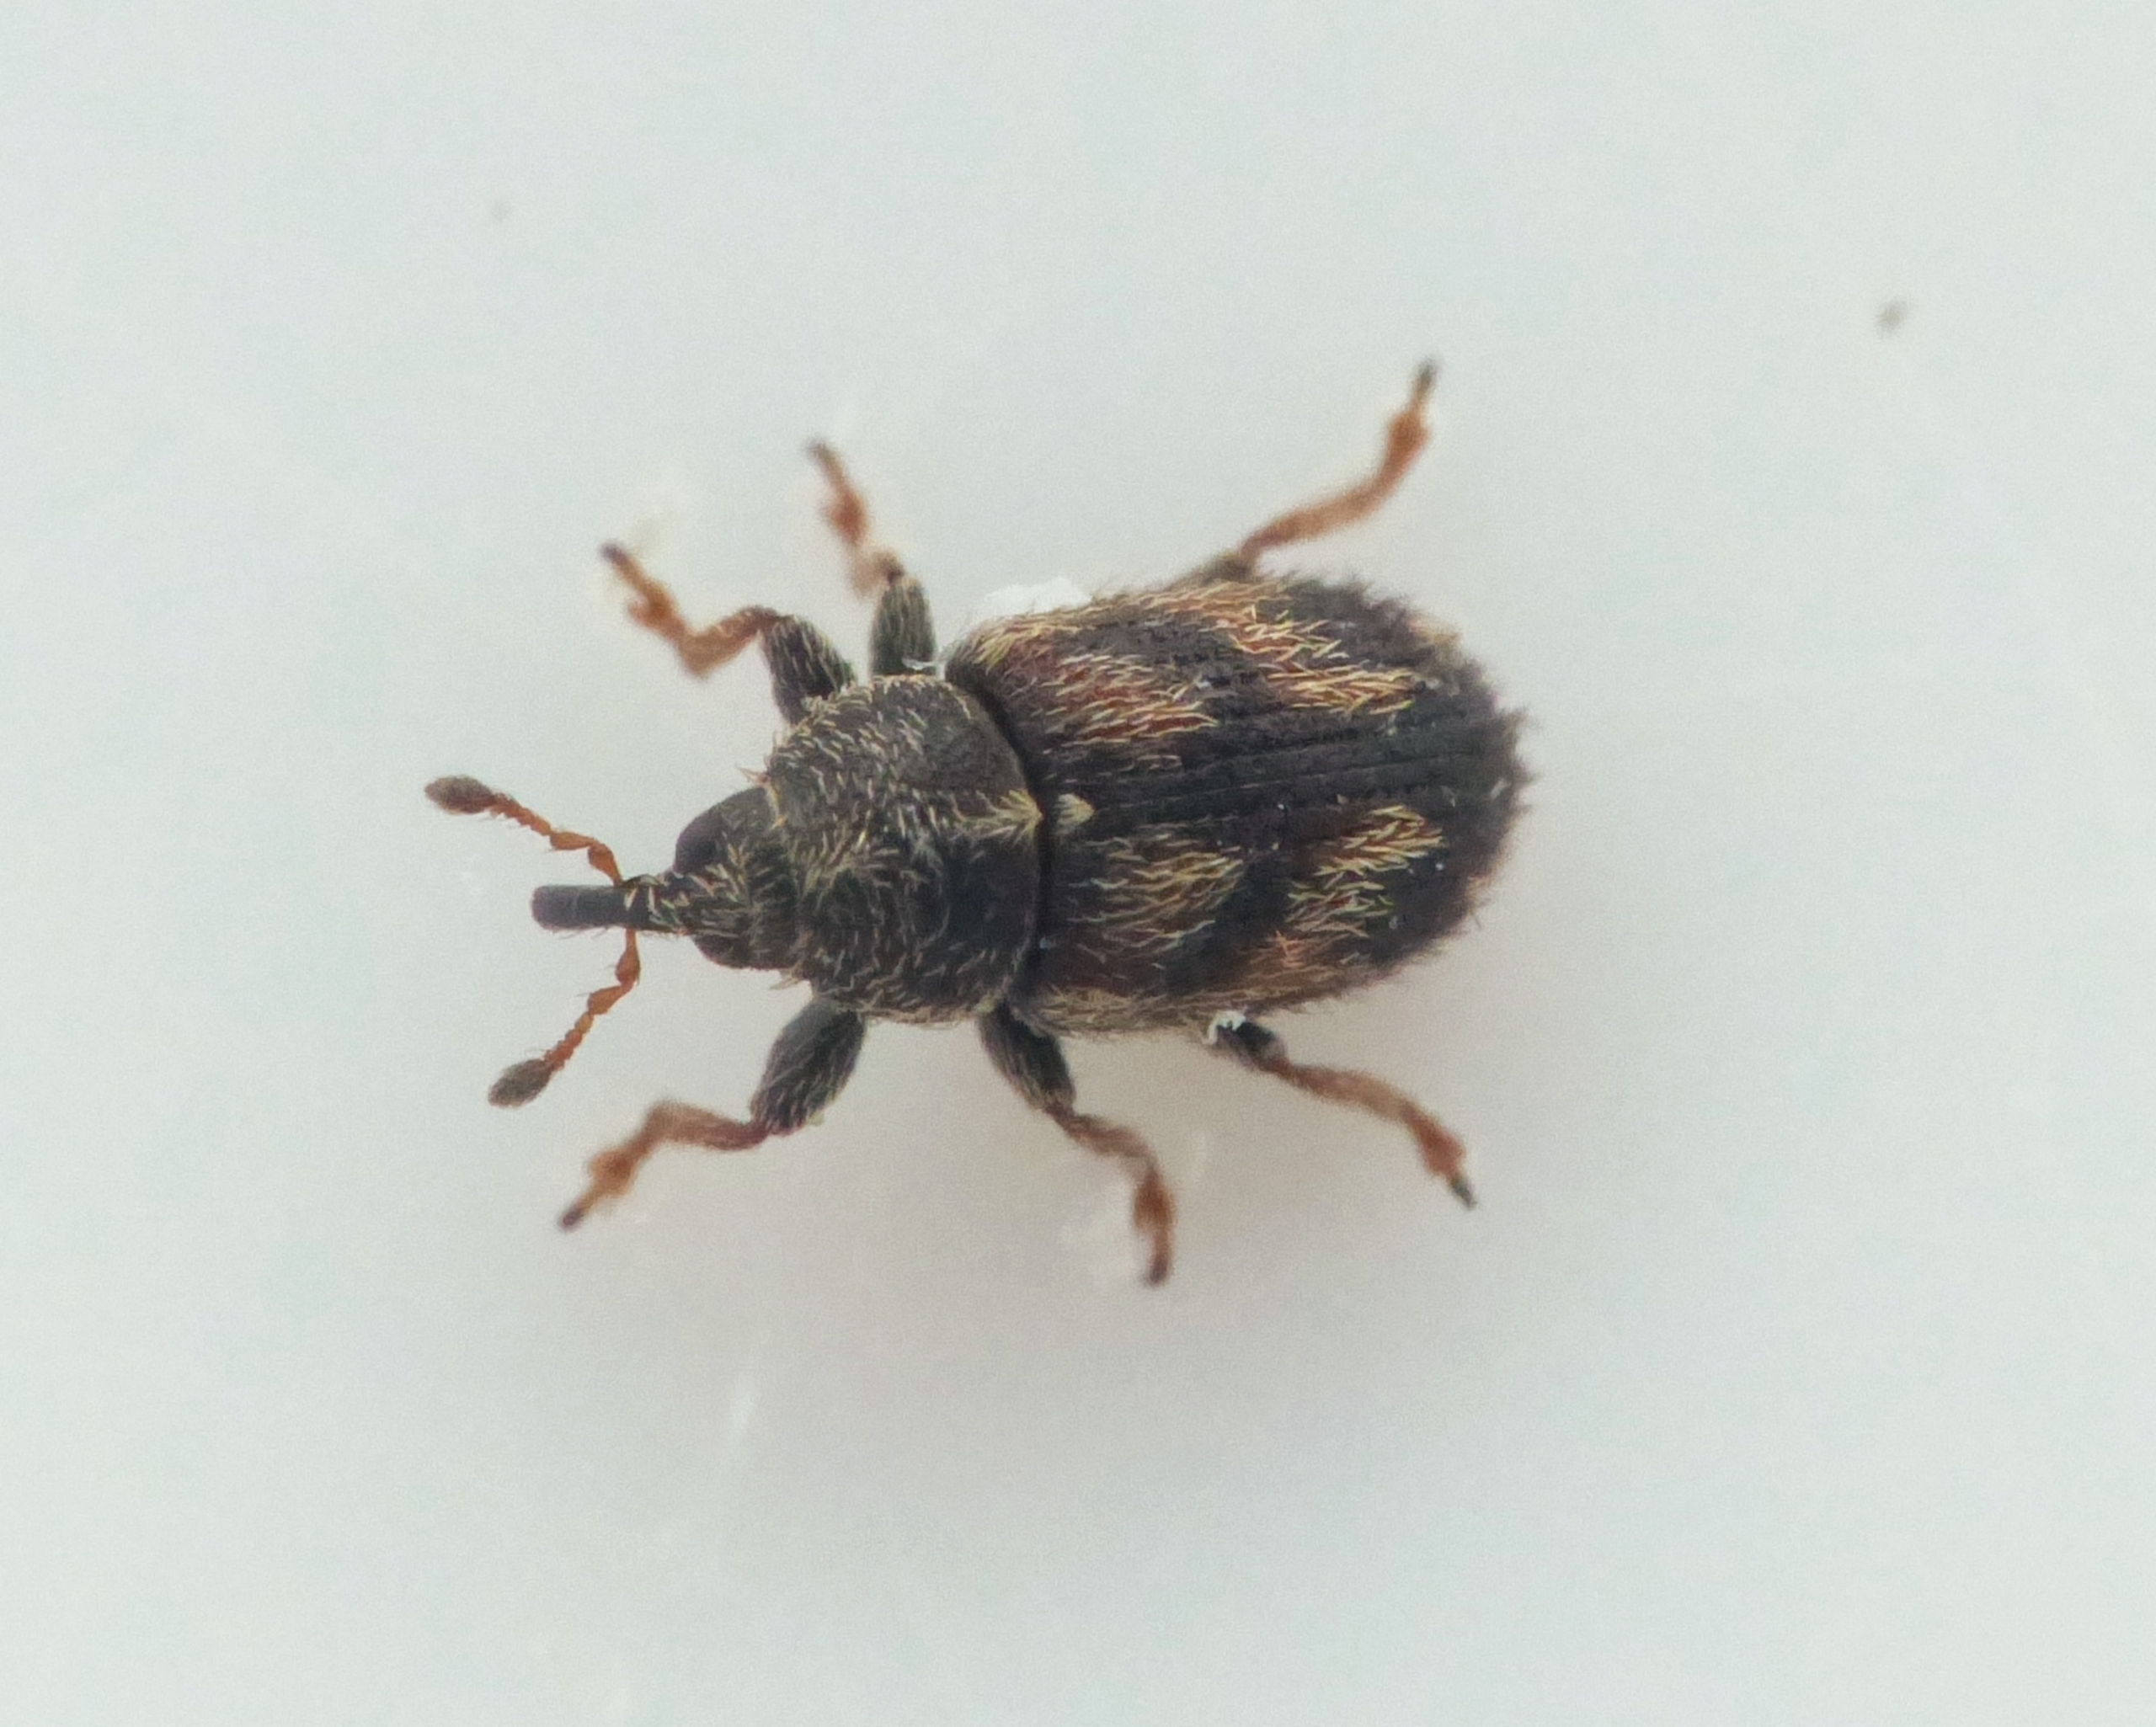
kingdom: Animalia
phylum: Arthropoda
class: Insecta
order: Coleoptera
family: Curculionidae
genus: Mecinus
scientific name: Mecinus labilis
